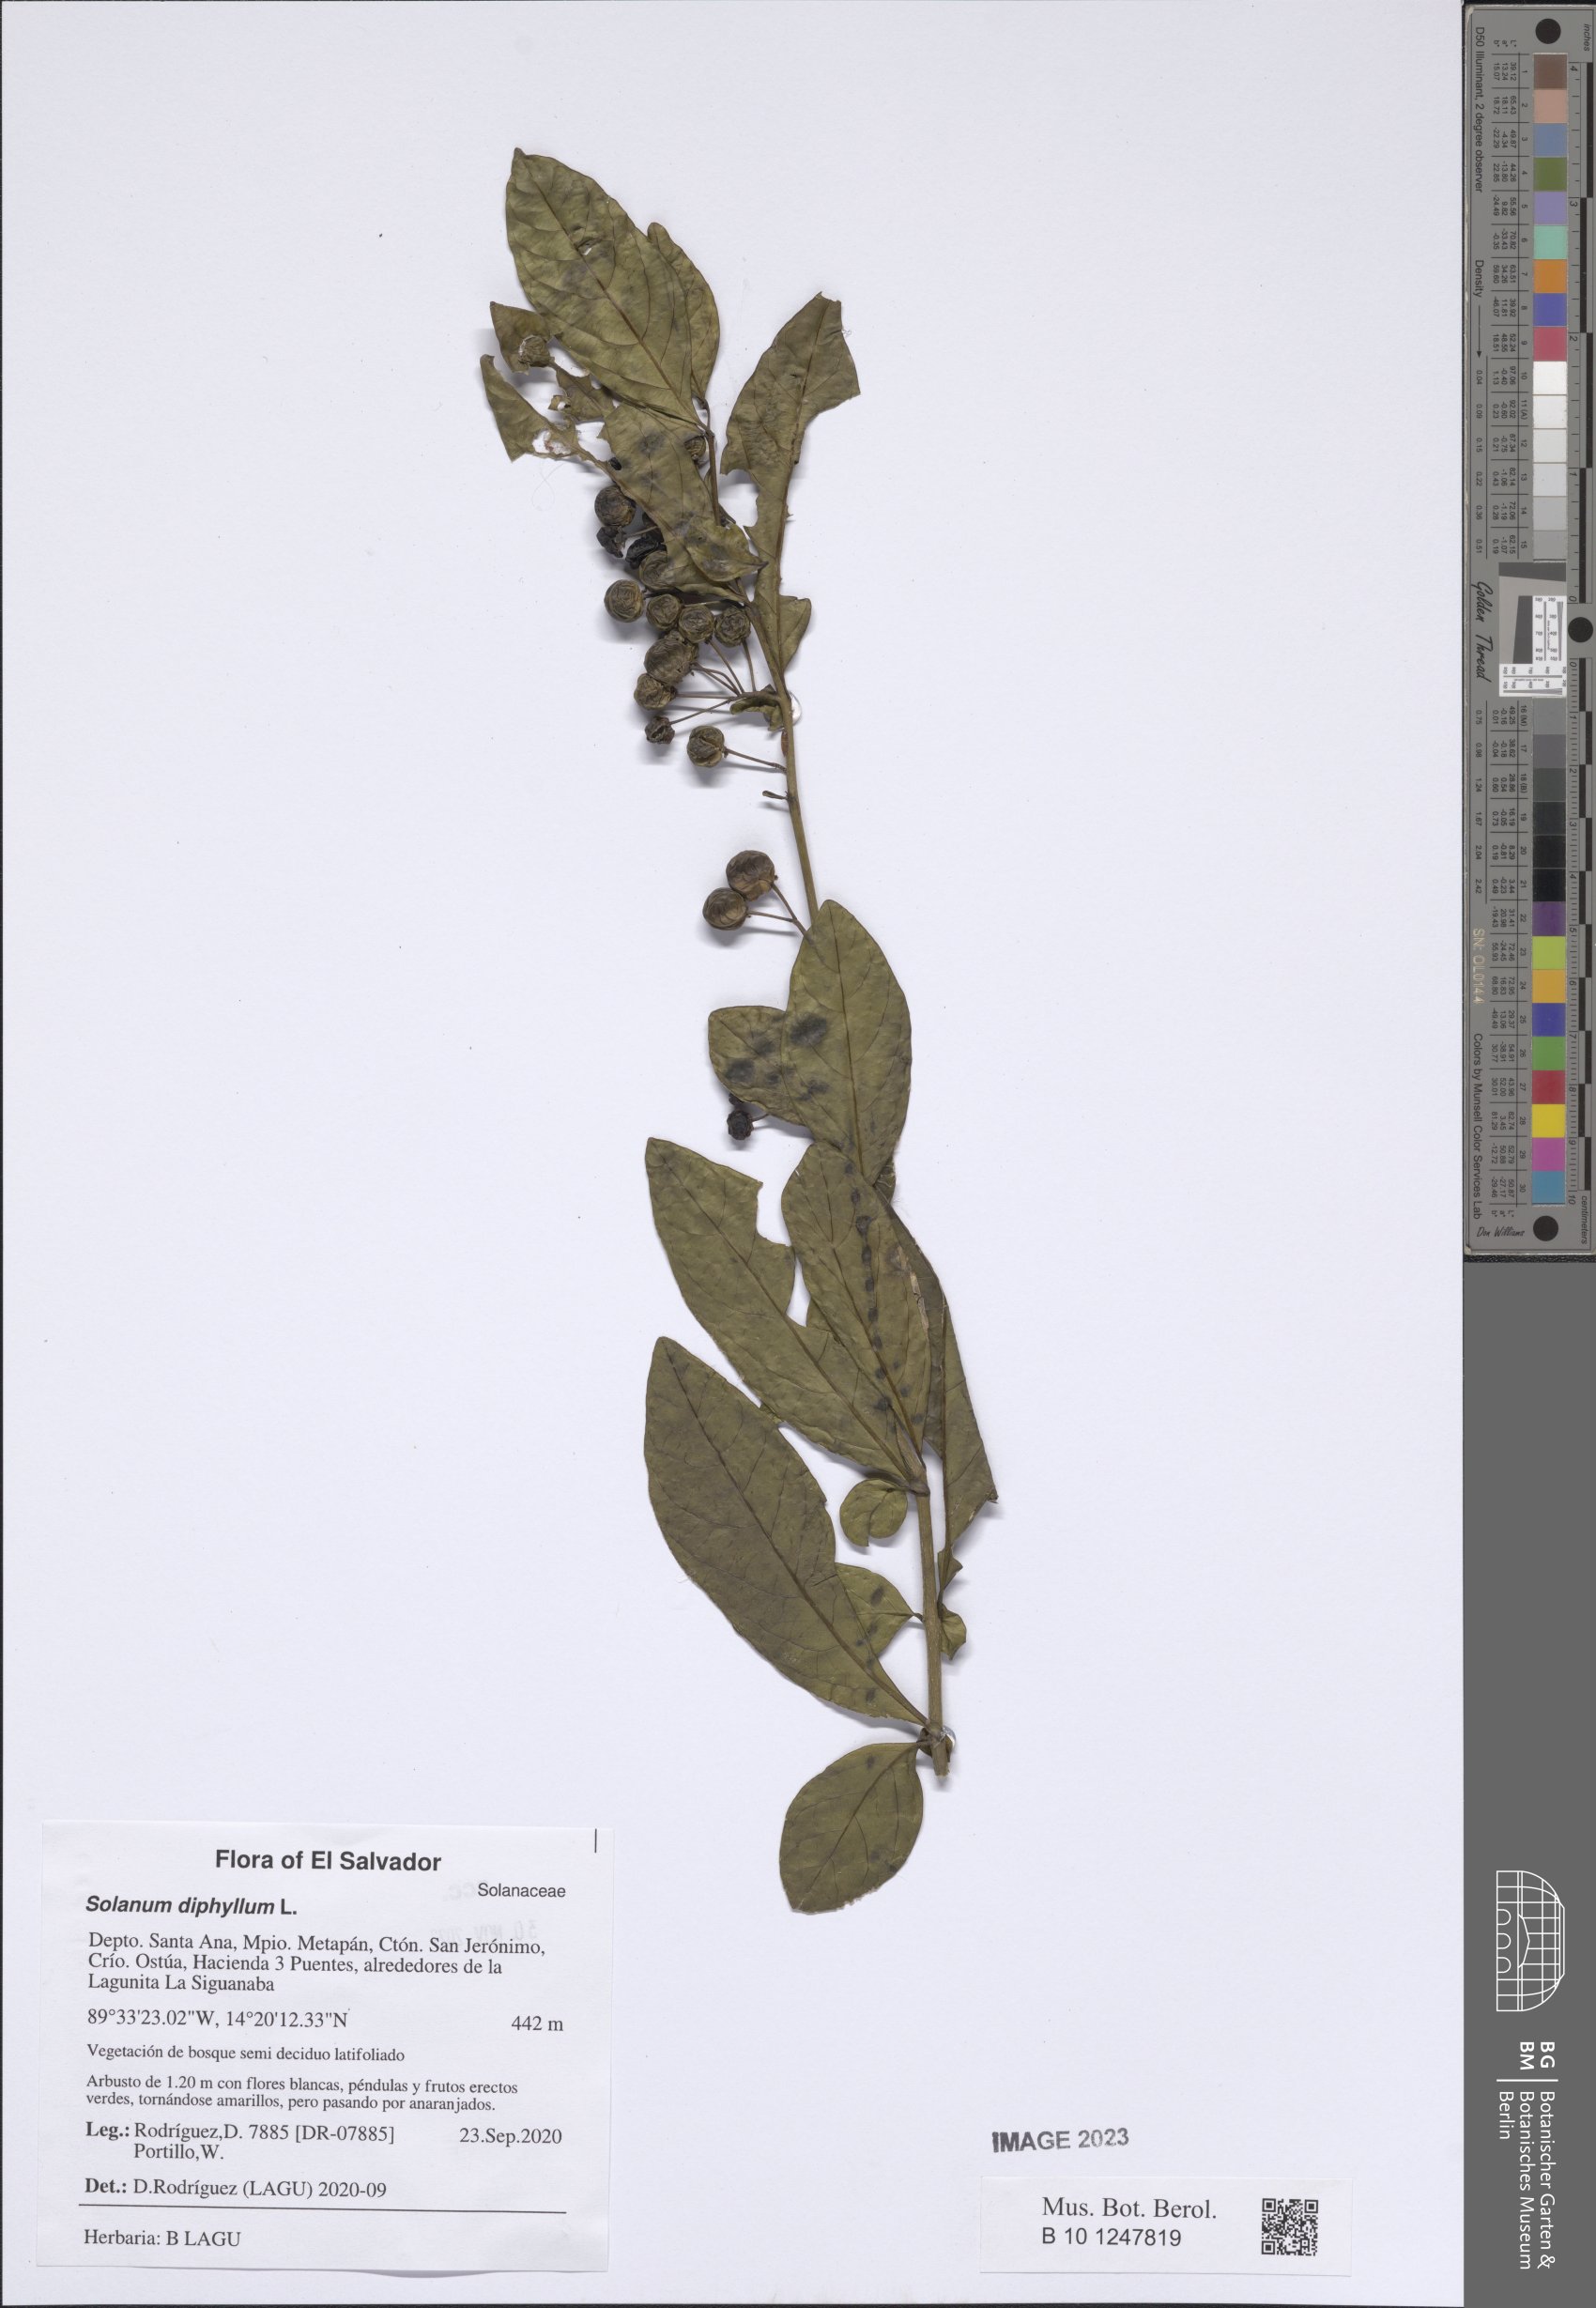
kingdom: Plantae
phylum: Tracheophyta
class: Magnoliopsida
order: Solanales
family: Solanaceae
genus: Solanum
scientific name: Solanum diphyllum
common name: Twoleaf nightshade
